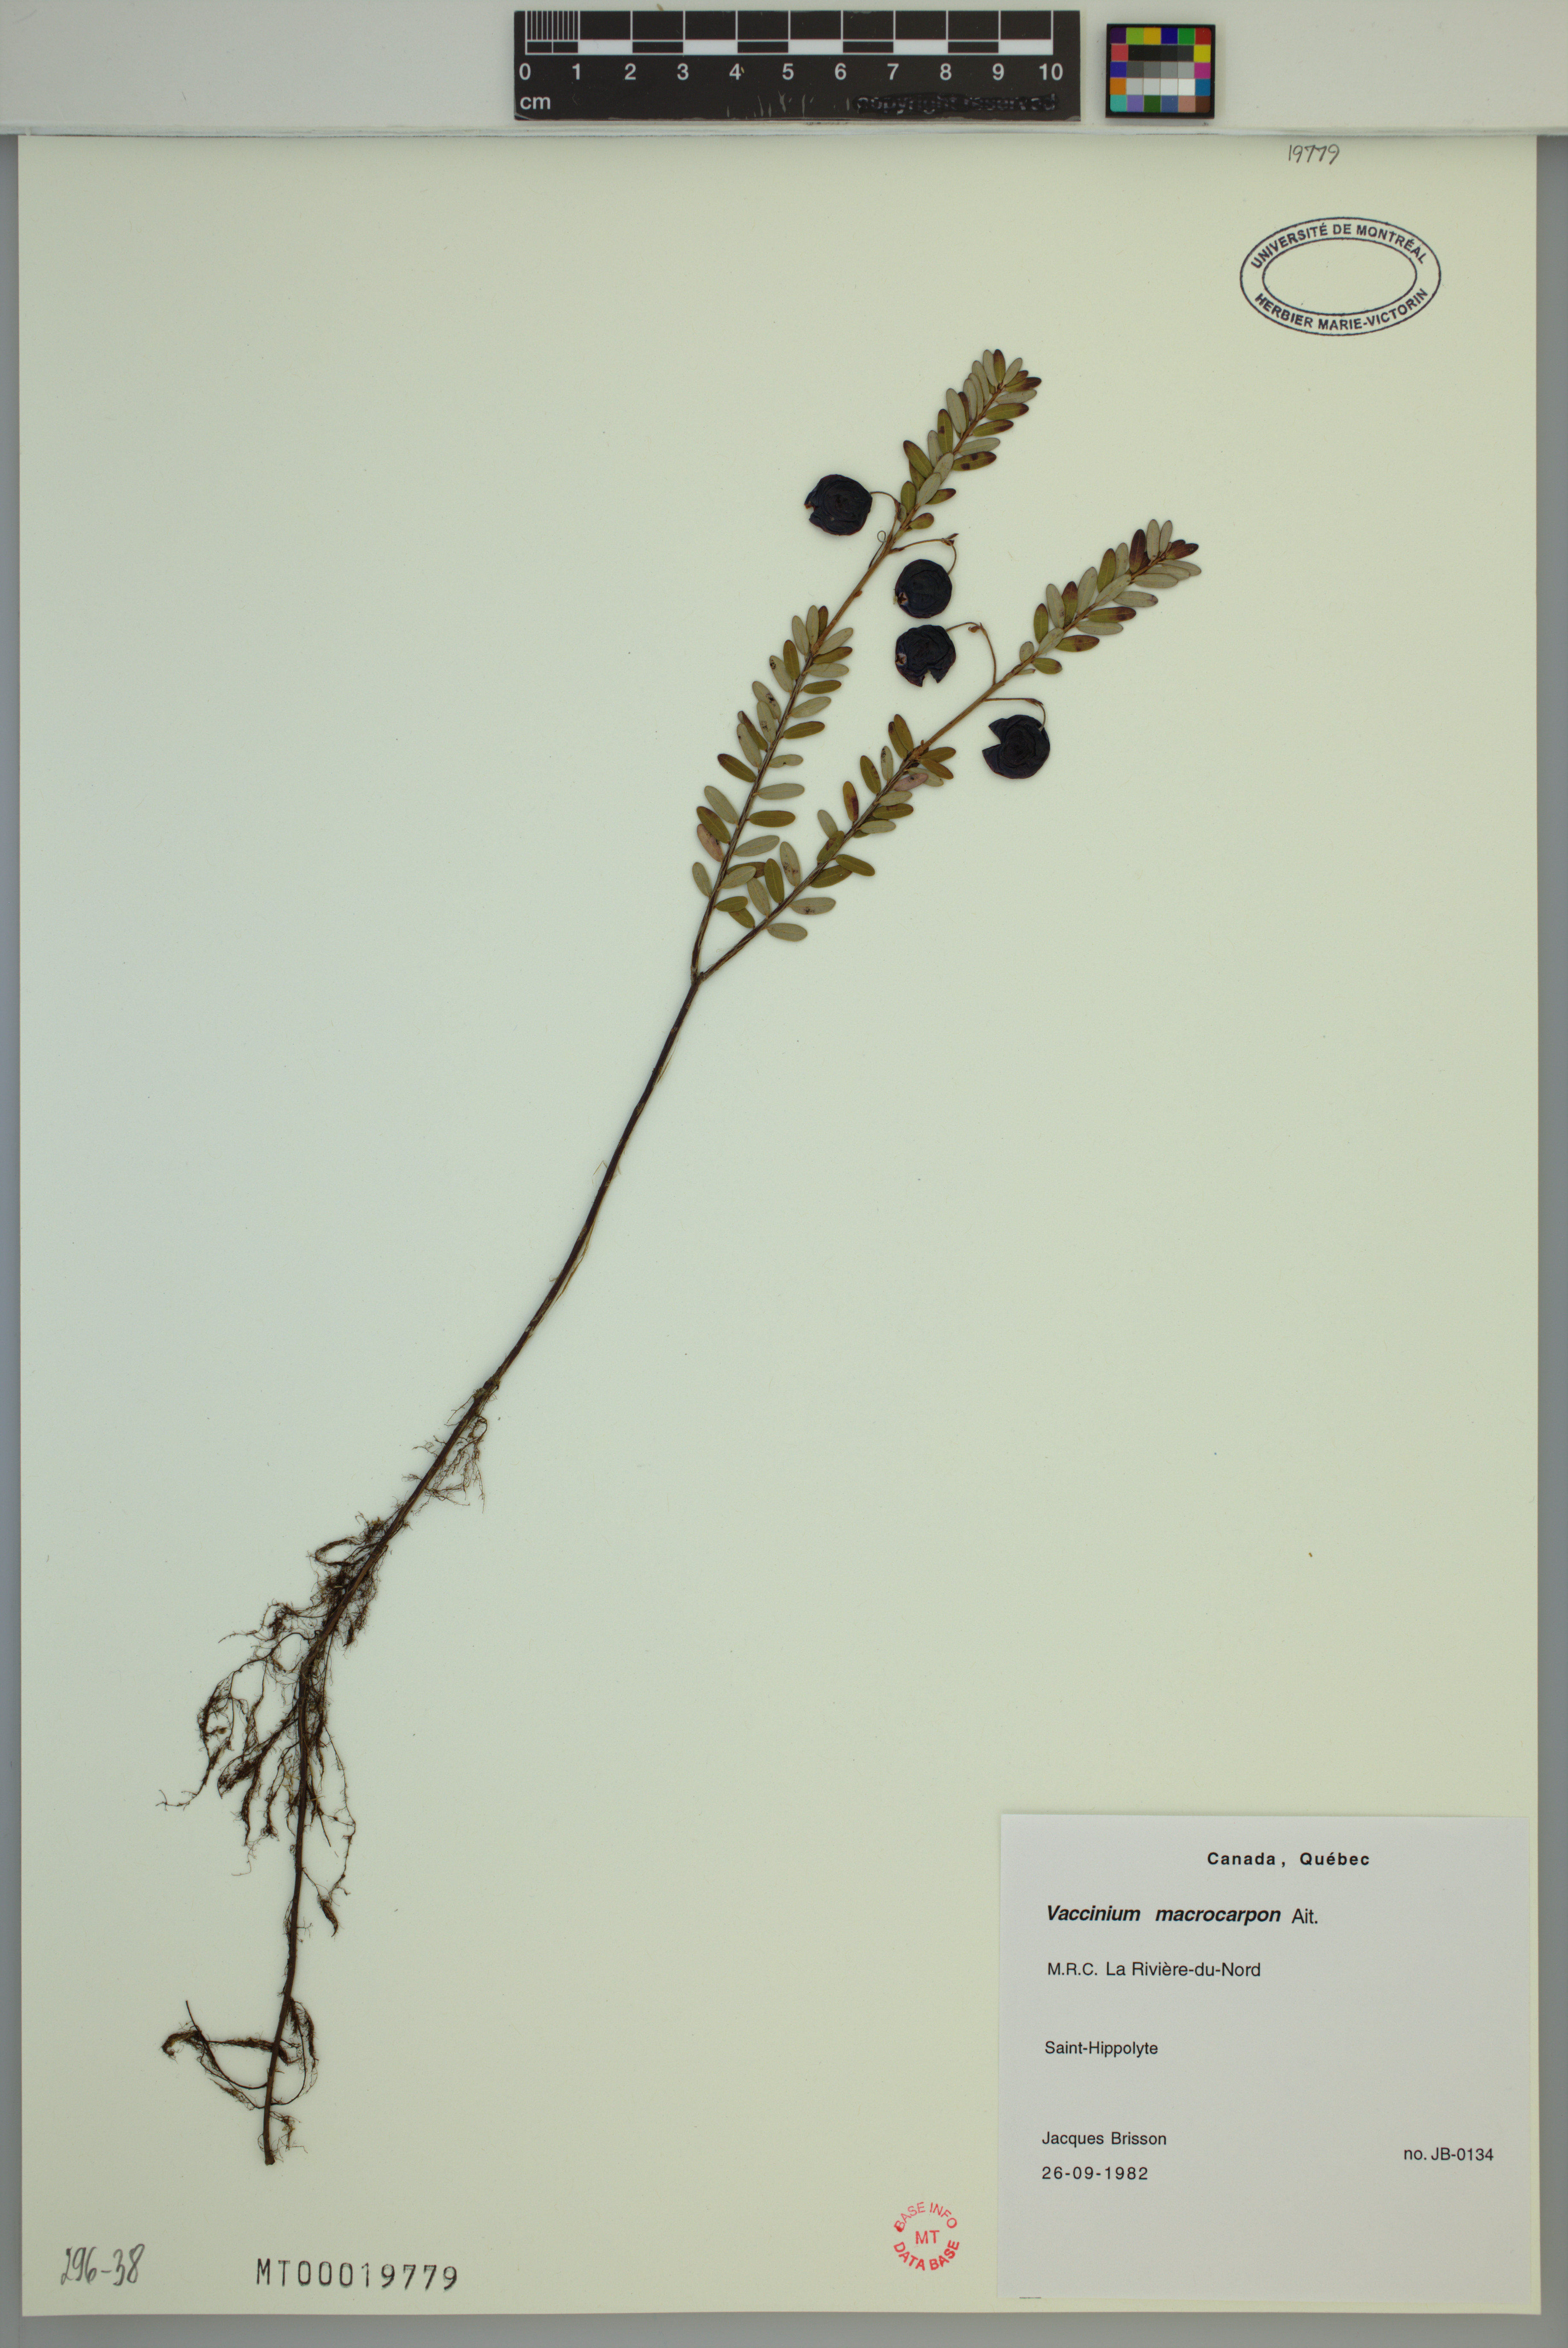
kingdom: Plantae
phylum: Tracheophyta
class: Magnoliopsida
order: Ericales
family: Ericaceae
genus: Vaccinium
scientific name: Vaccinium macrocarpon
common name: American cranberry
